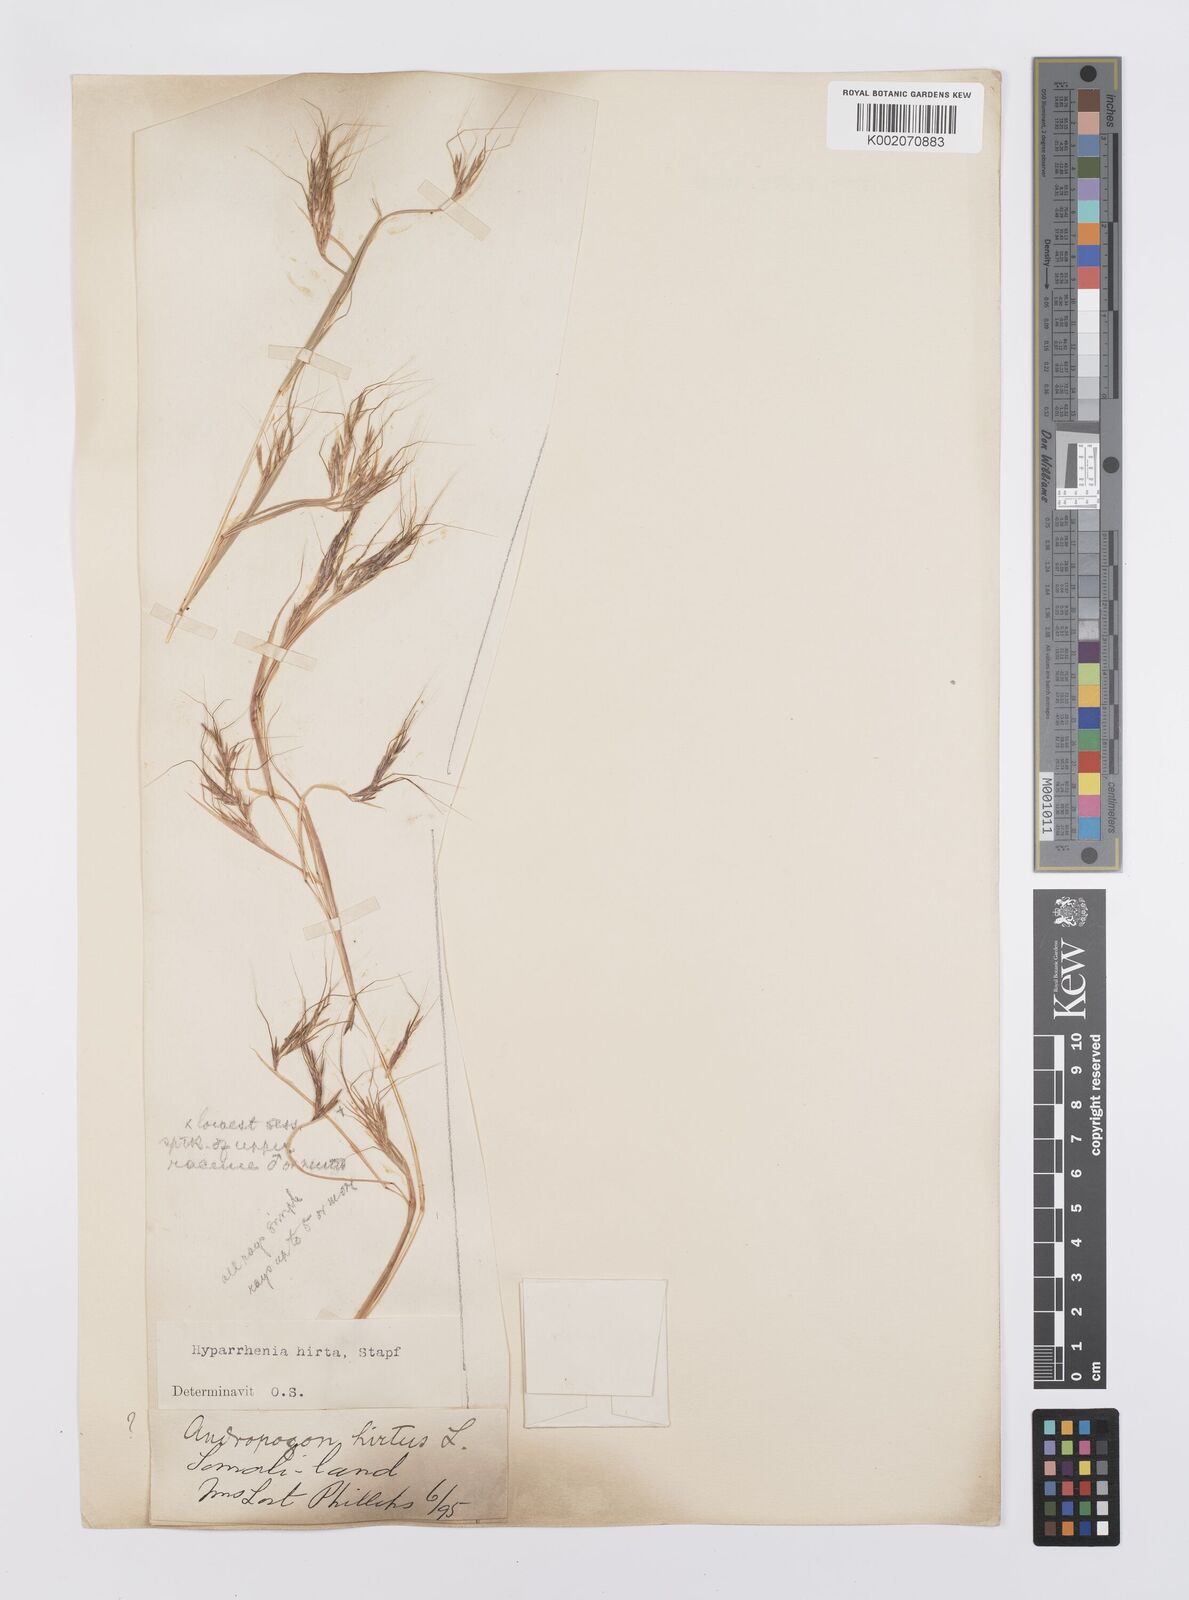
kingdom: Plantae
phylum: Tracheophyta
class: Liliopsida
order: Poales
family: Poaceae
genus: Hyparrhenia
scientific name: Hyparrhenia hirta
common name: Thatching grass
